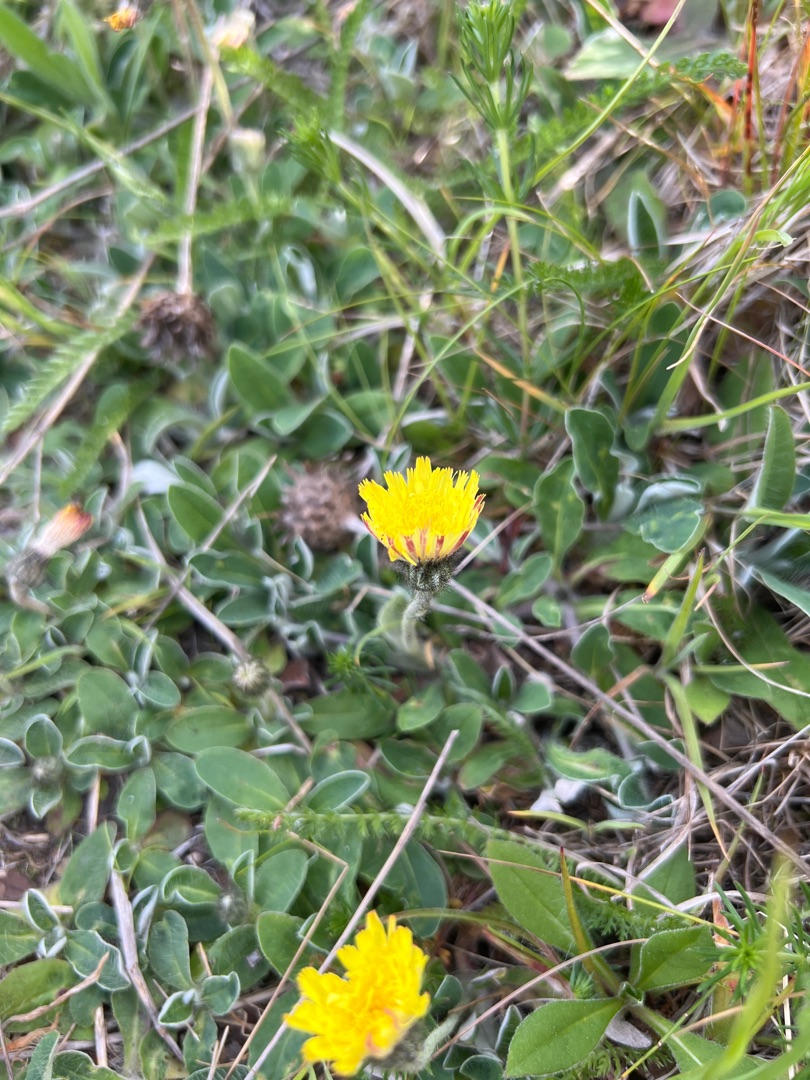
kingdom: Plantae
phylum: Tracheophyta
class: Magnoliopsida
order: Asterales
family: Asteraceae
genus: Pilosella
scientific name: Pilosella officinarum
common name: Håret høgeurt
